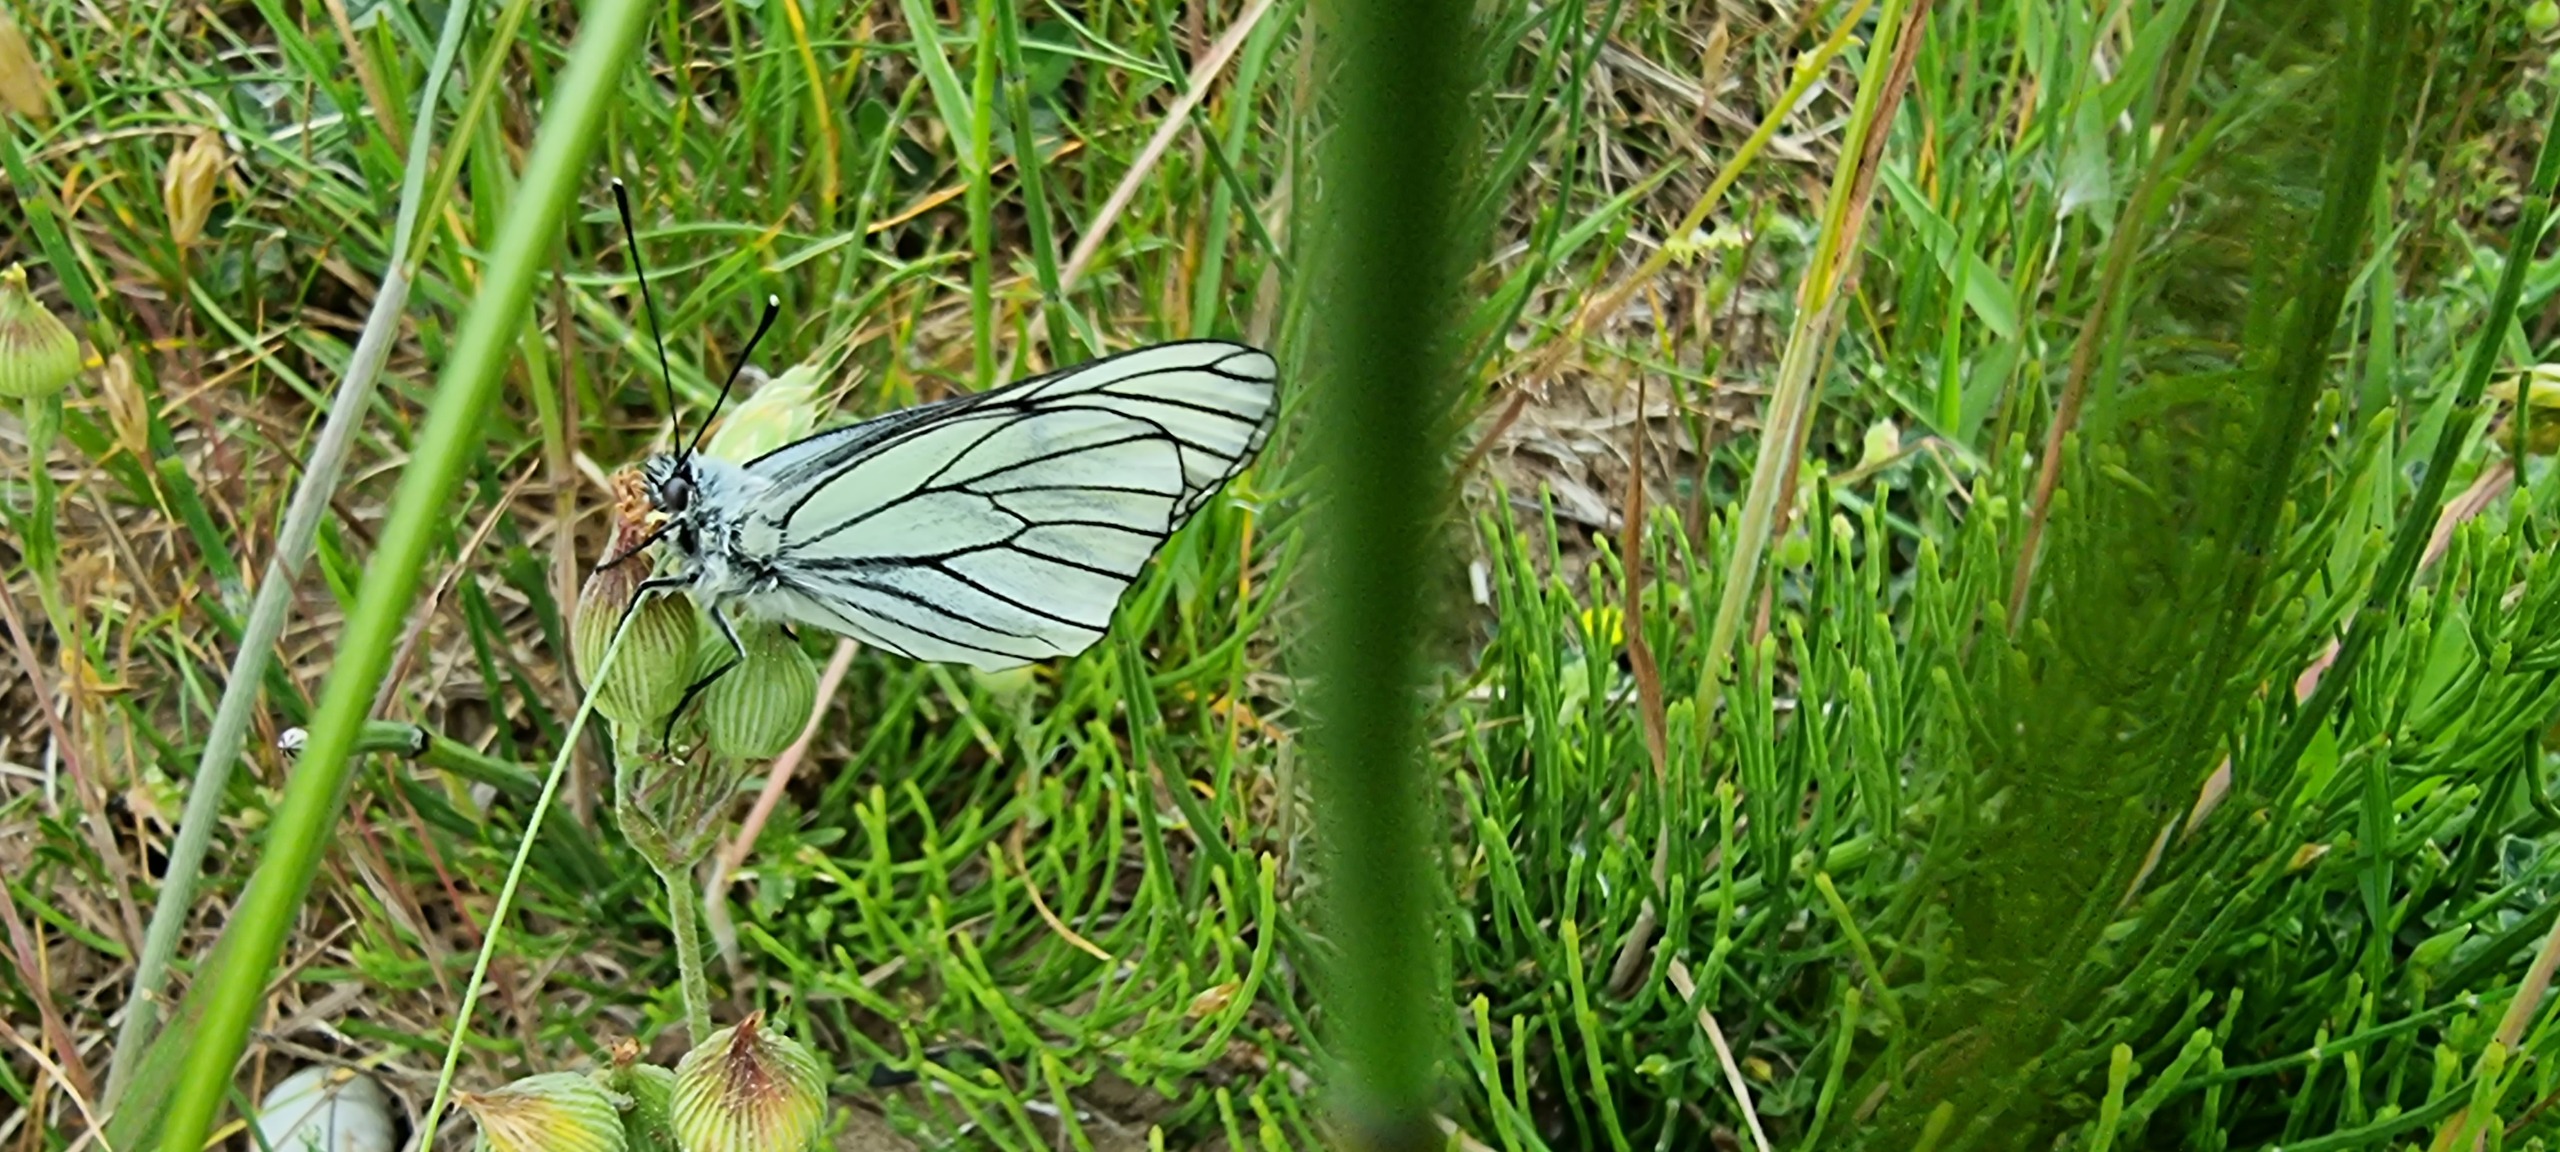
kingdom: Animalia
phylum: Arthropoda
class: Insecta
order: Lepidoptera
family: Pieridae
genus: Aporia
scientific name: Aporia crataegi
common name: Sortåret hvidvinge
